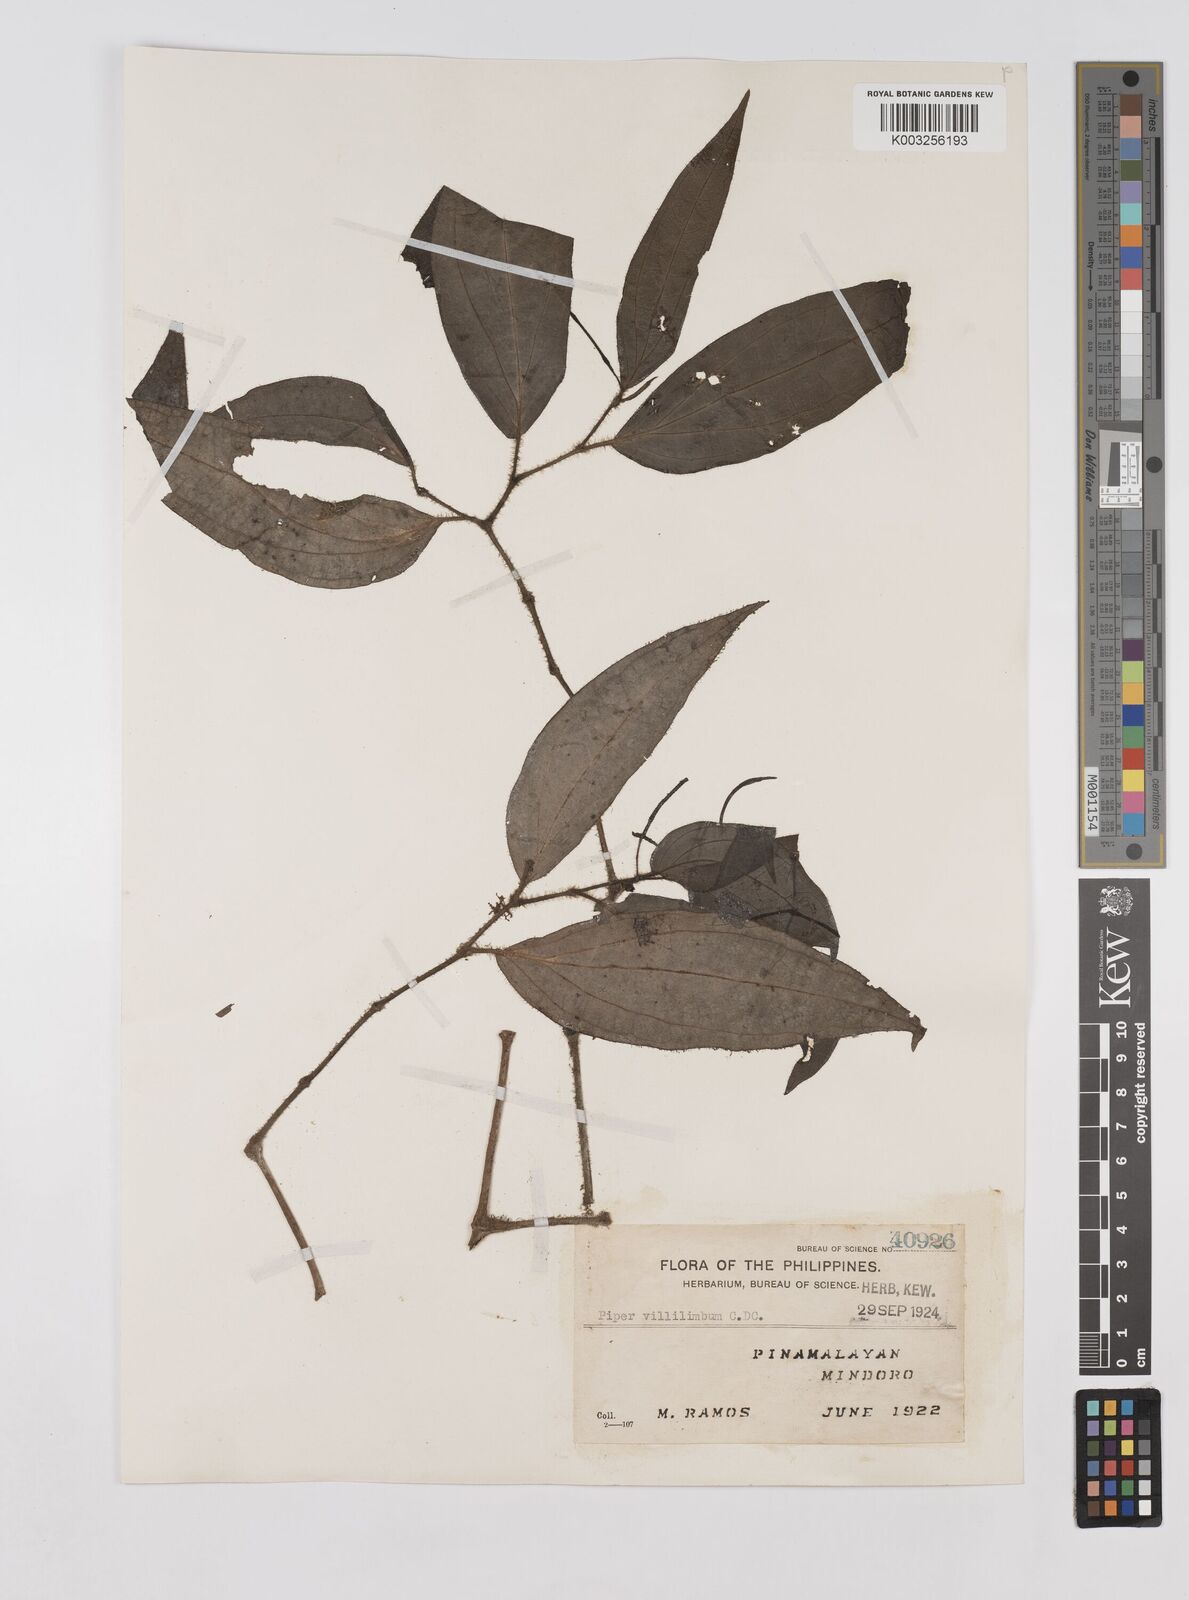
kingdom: Plantae
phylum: Tracheophyta
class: Magnoliopsida
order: Piperales
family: Piperaceae
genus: Piper
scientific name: Piper lanatum
